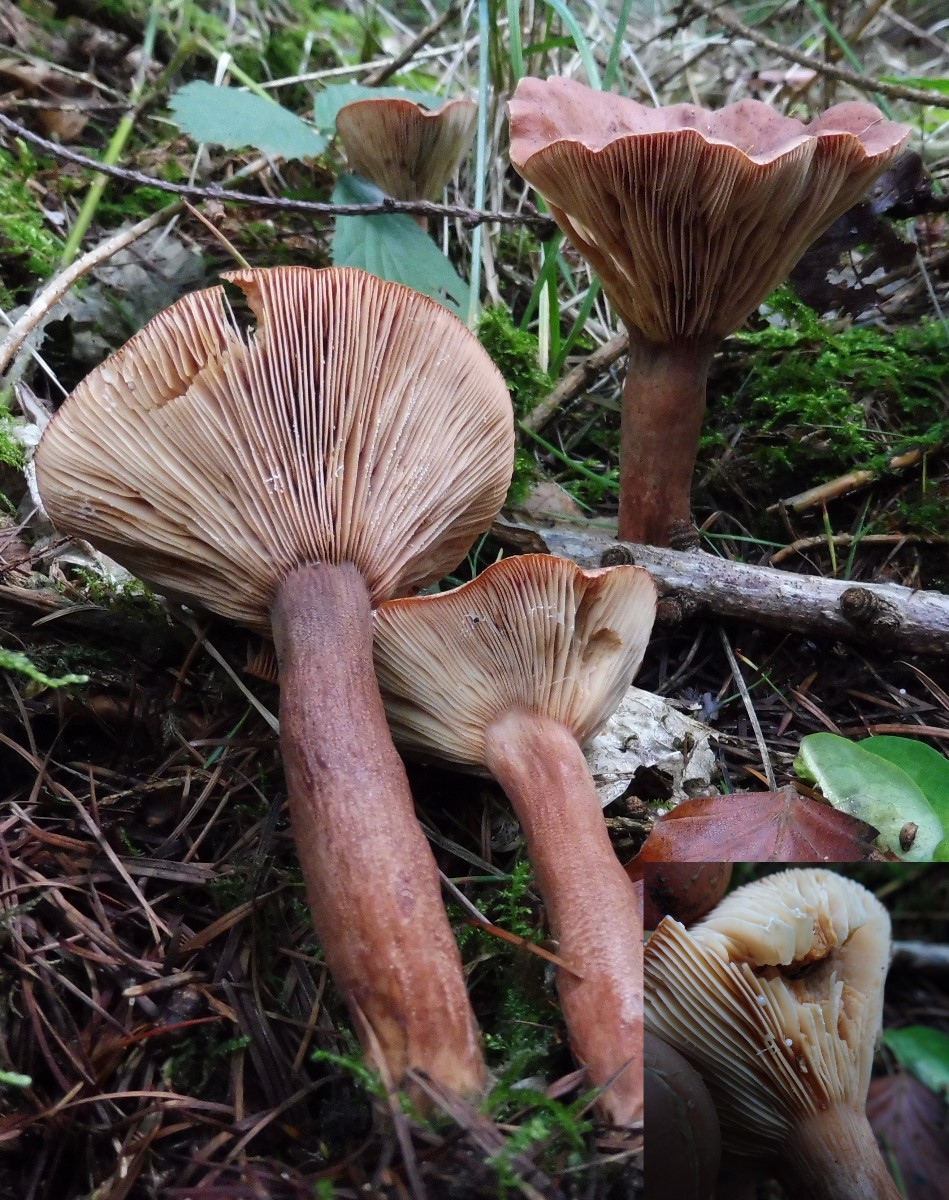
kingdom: Fungi
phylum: Basidiomycota
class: Agaricomycetes
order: Russulales
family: Russulaceae
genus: Lactarius
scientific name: Lactarius rufus
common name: rødbrun mælkehat
